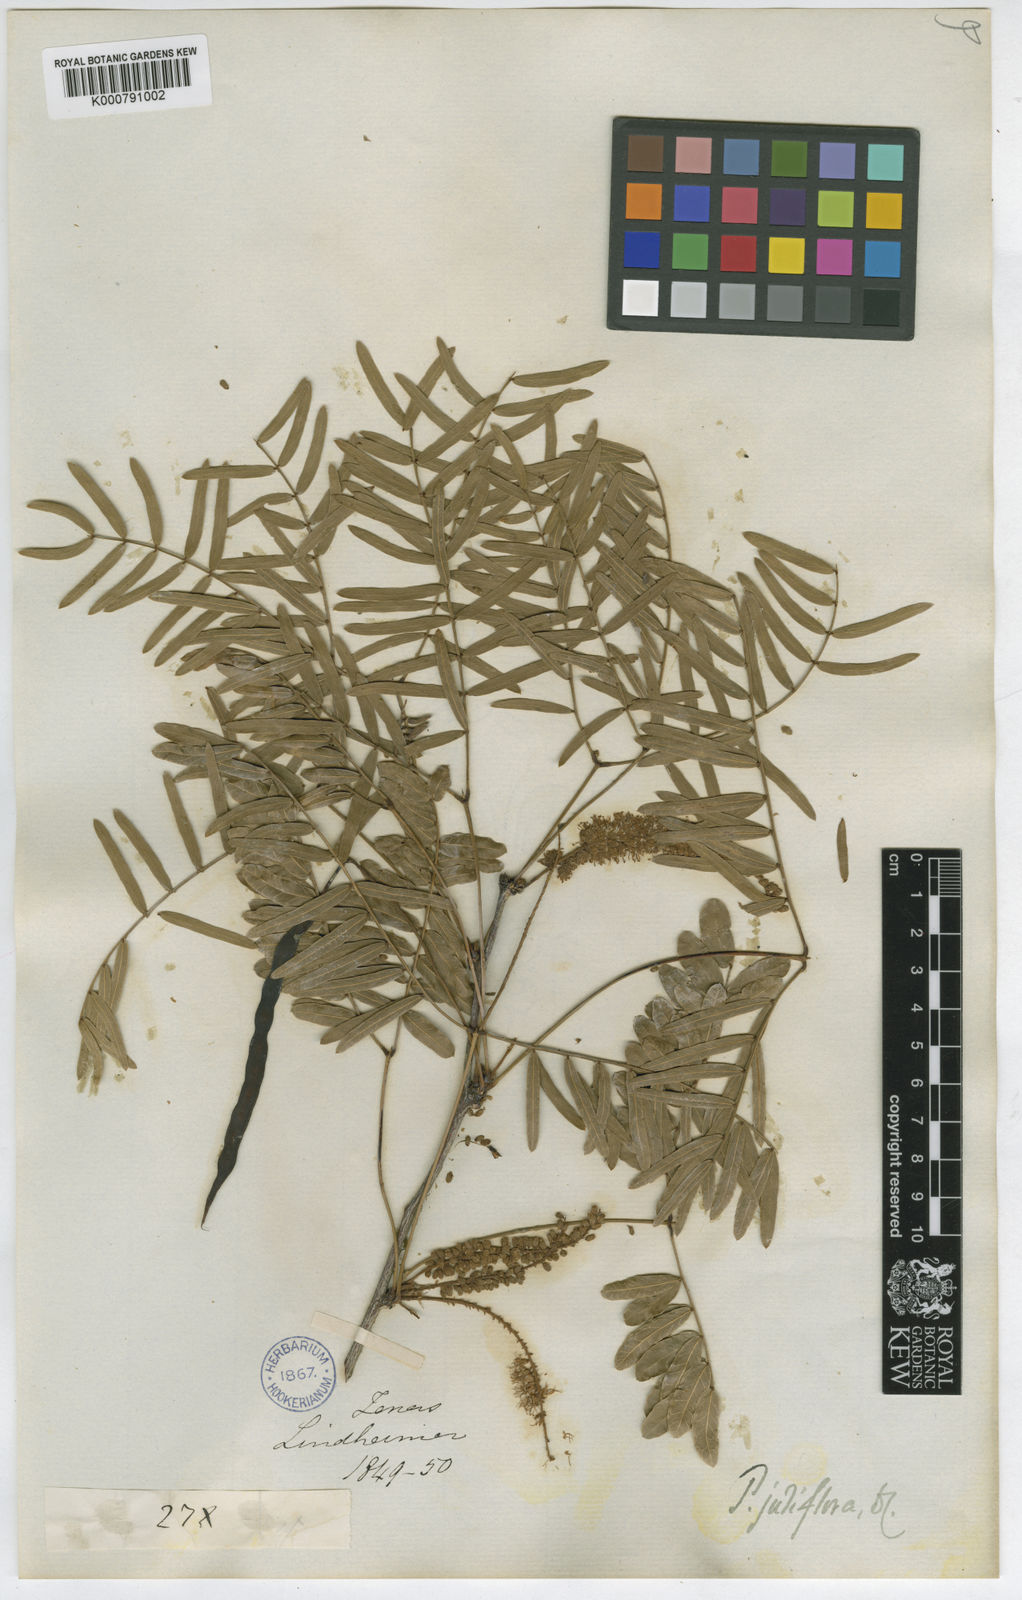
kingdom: Plantae
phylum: Tracheophyta
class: Magnoliopsida
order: Fabales
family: Fabaceae
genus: Prosopis
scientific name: Prosopis juliflora
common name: Mesquite
